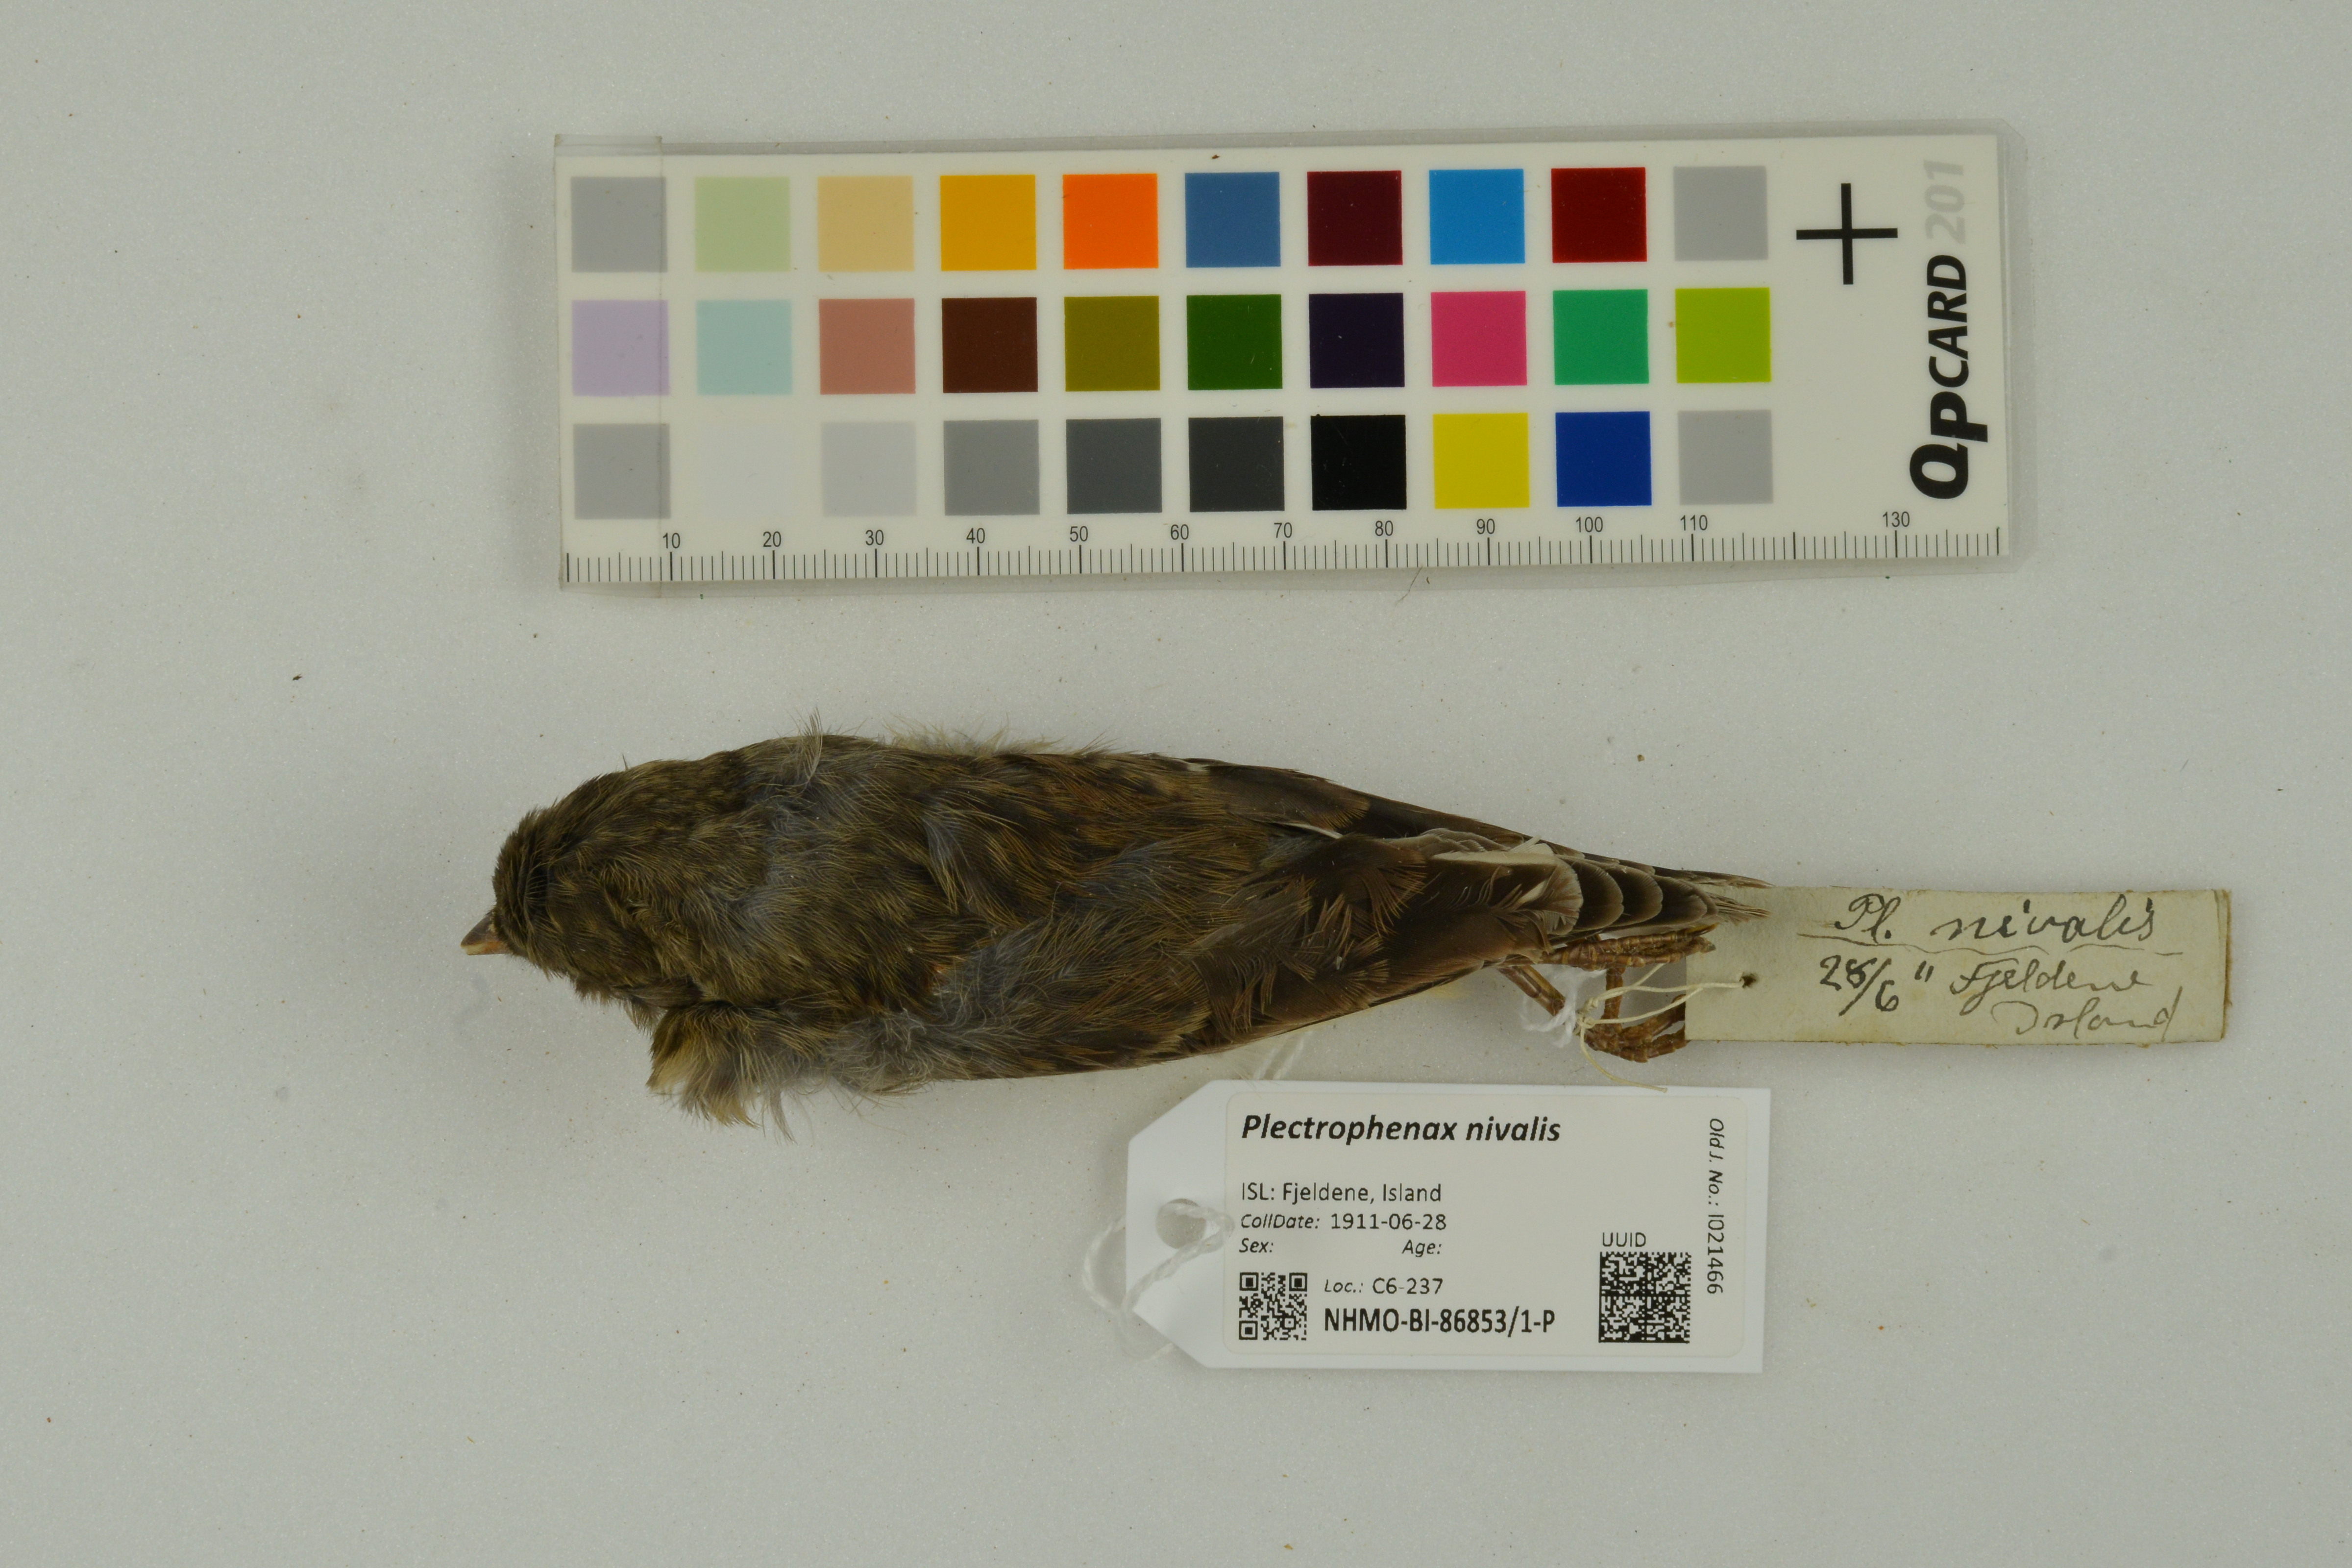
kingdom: Animalia
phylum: Chordata
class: Aves
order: Passeriformes
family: Calcariidae
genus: Plectrophenax
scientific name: Plectrophenax nivalis
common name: Snow bunting
